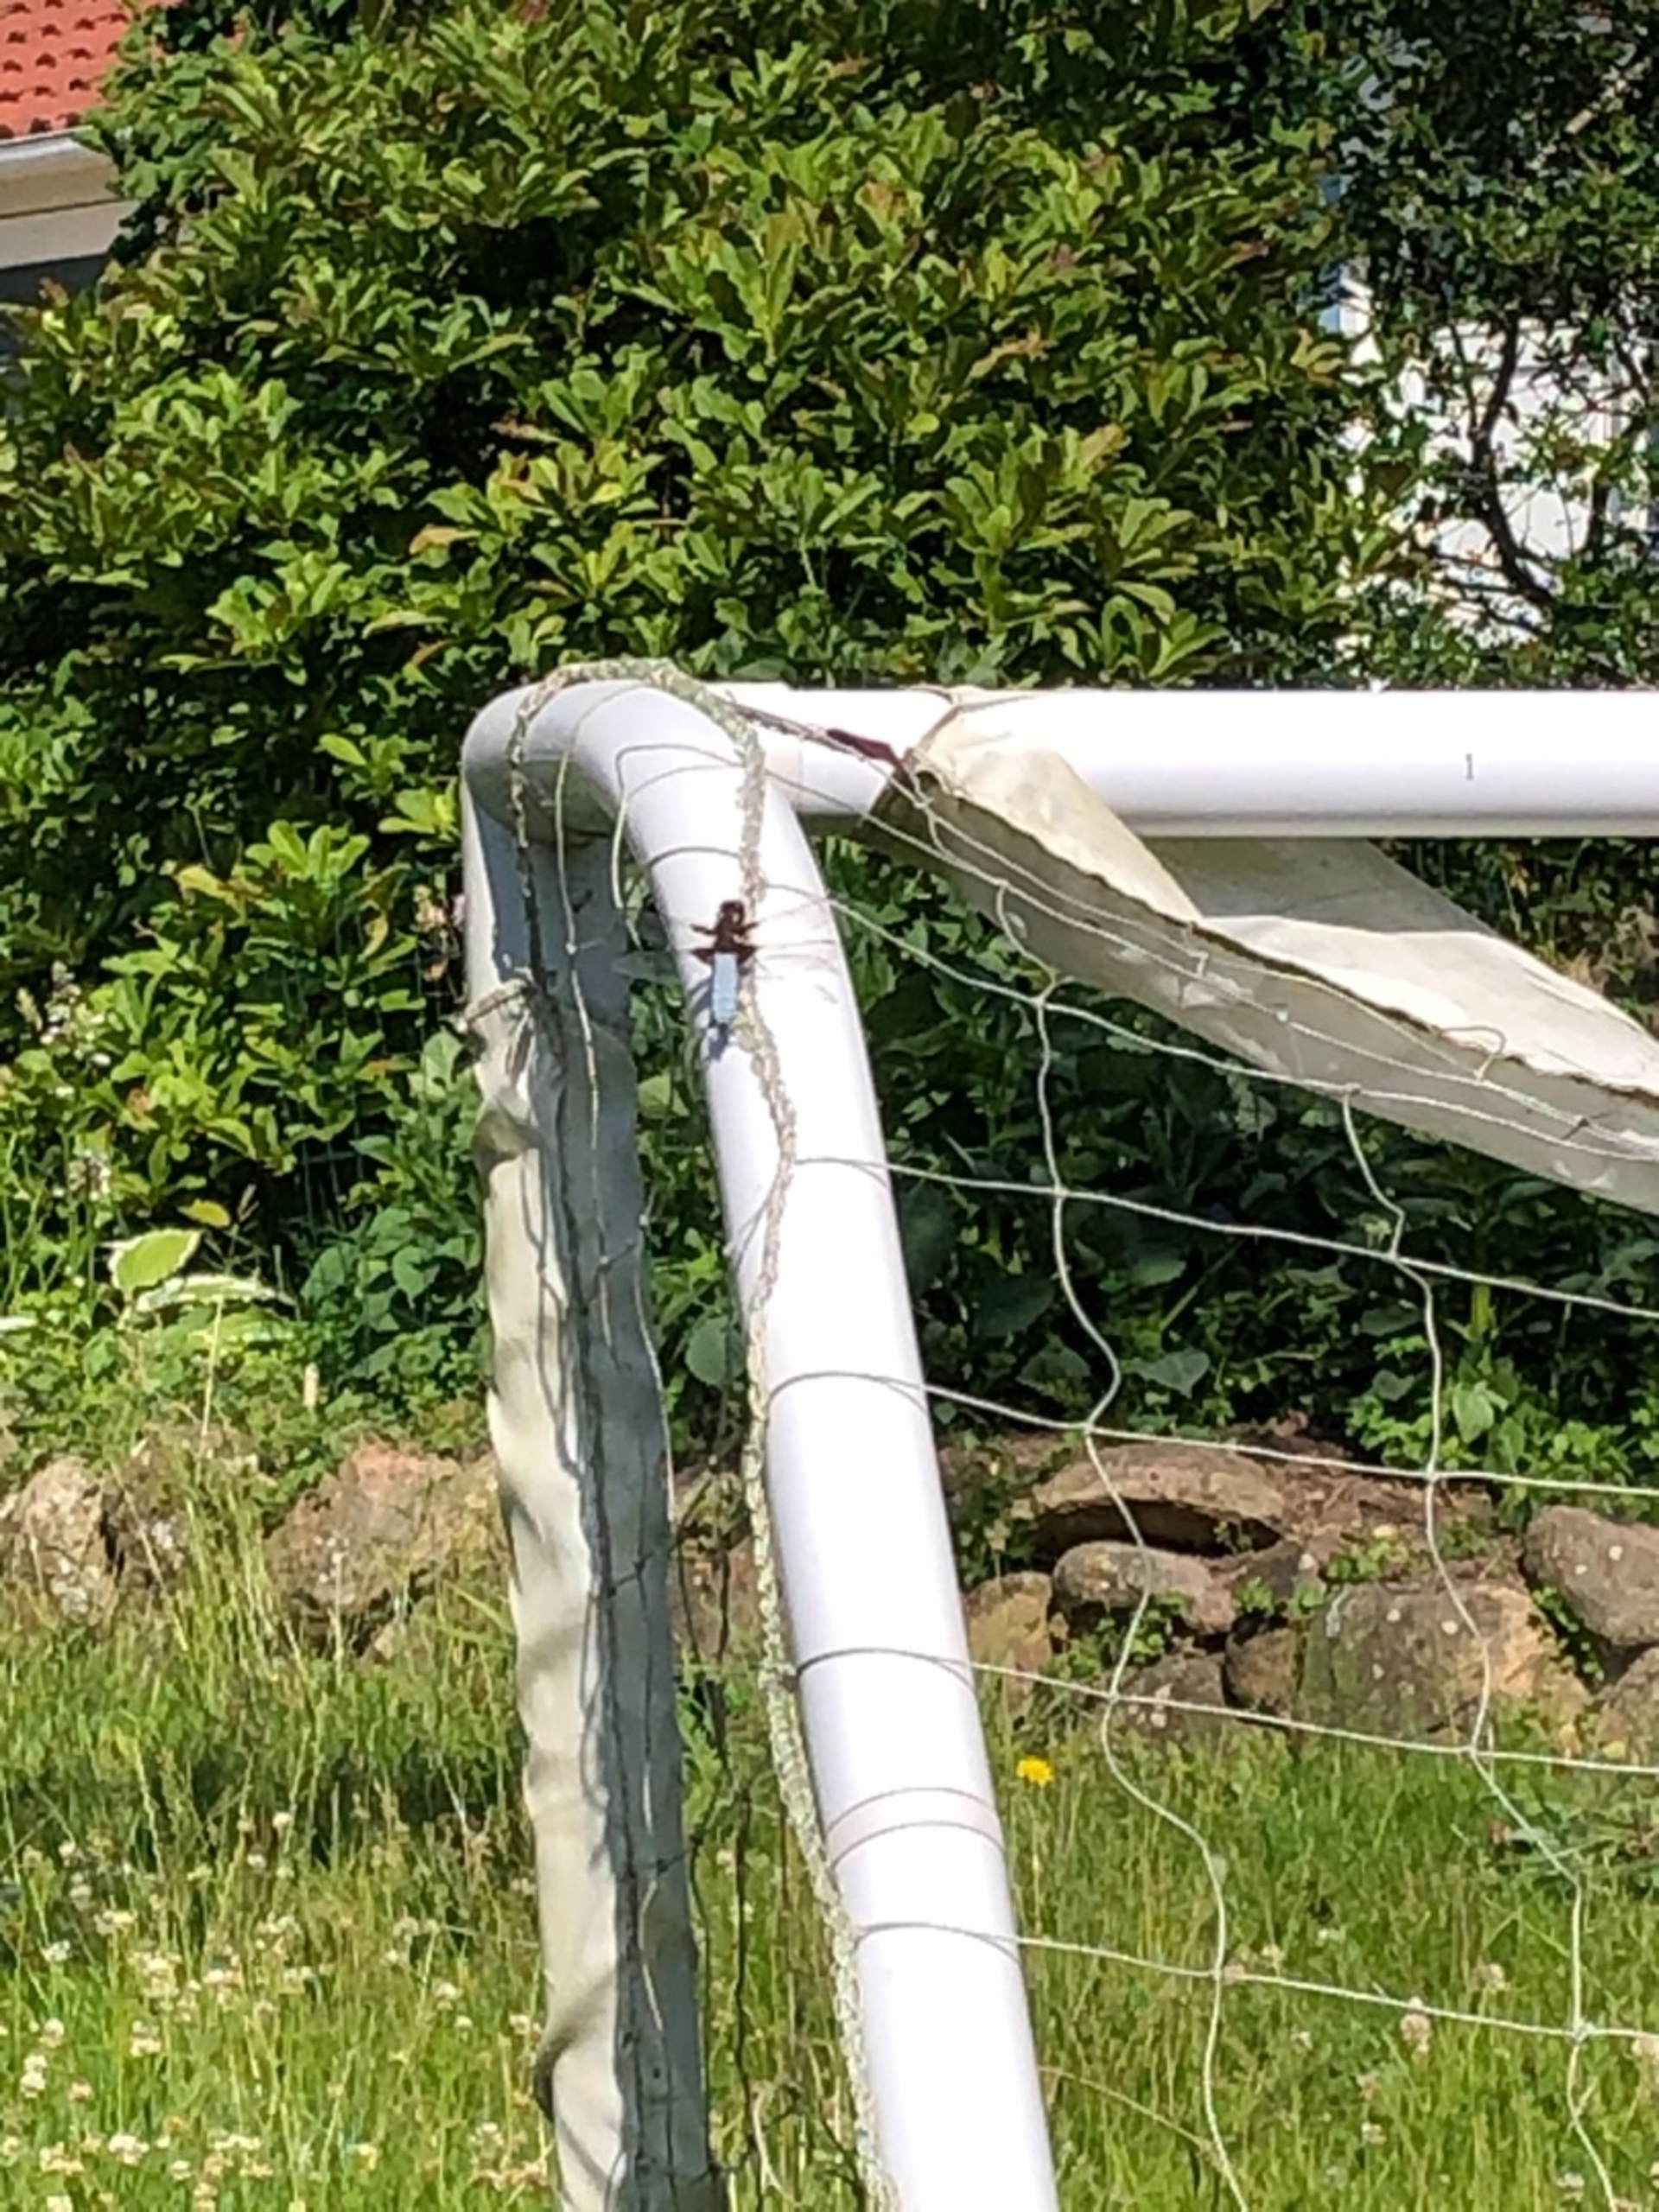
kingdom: Animalia
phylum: Arthropoda
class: Insecta
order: Odonata
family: Libellulidae
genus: Libellula
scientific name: Libellula depressa
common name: Blå libel
